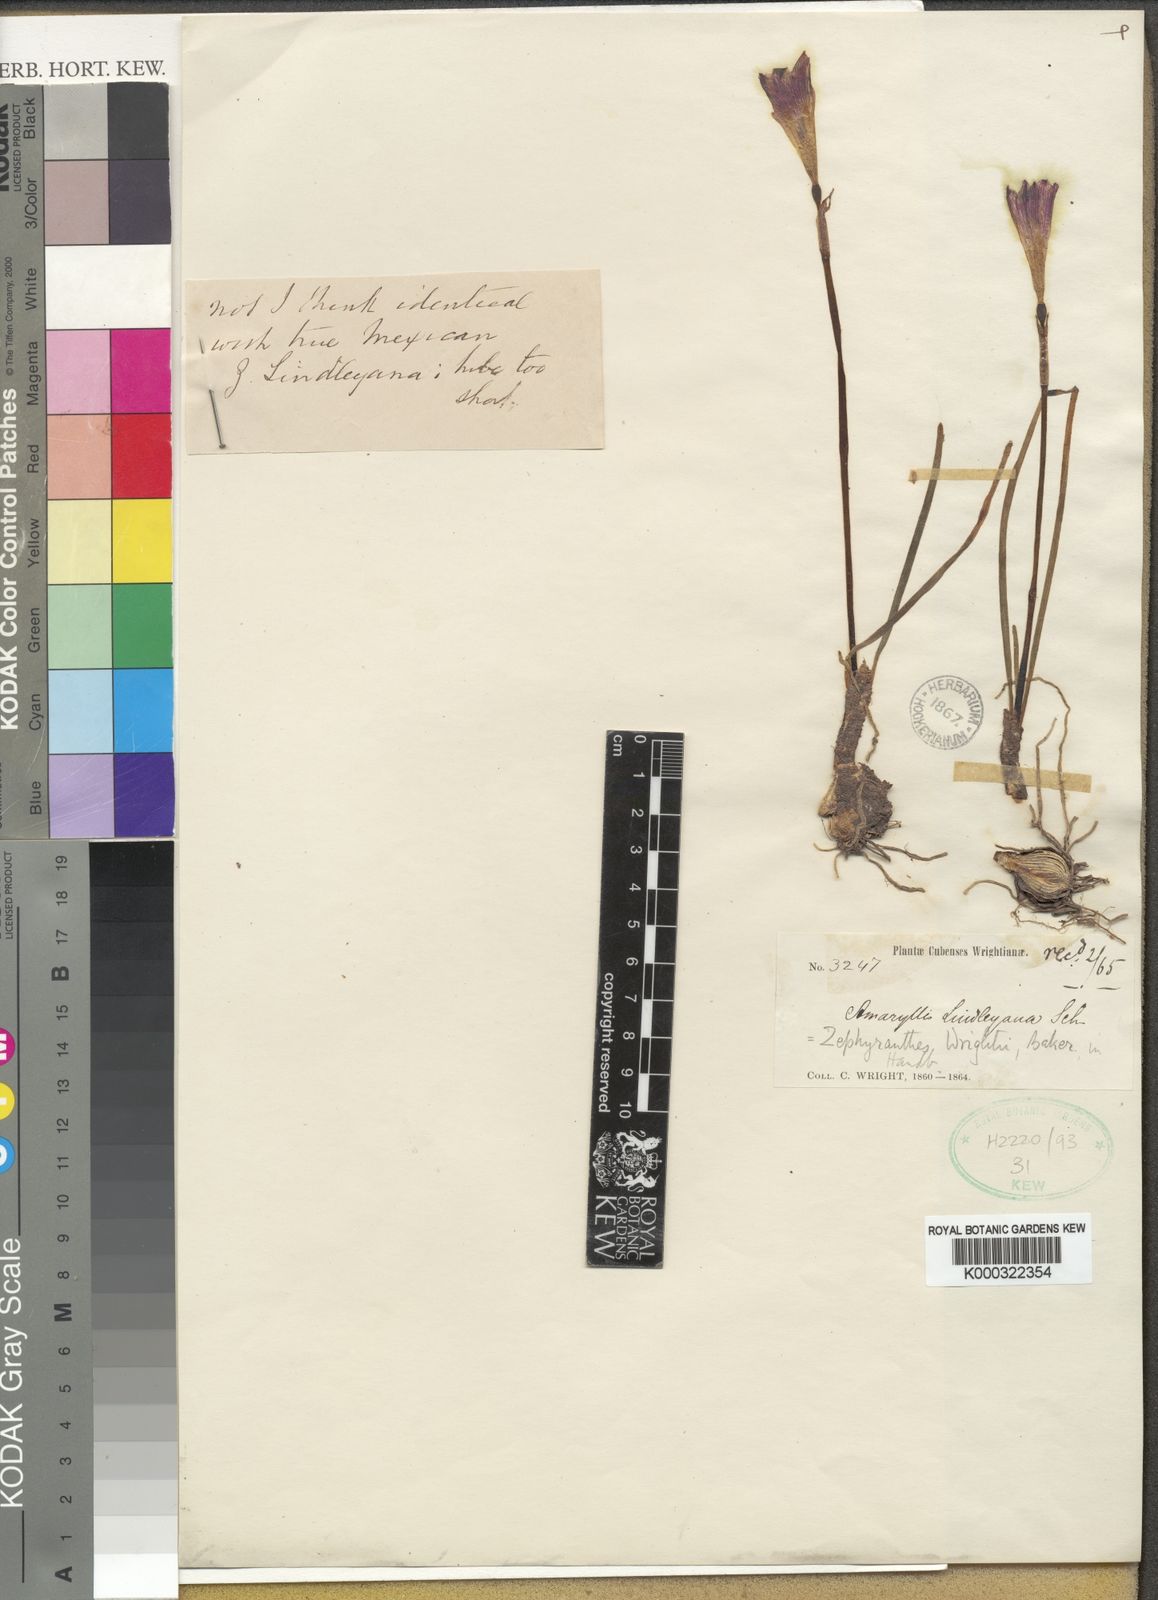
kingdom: Plantae
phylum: Tracheophyta
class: Liliopsida
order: Asparagales
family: Amaryllidaceae
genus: Zephyranthes
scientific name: Zephyranthes wrightii
